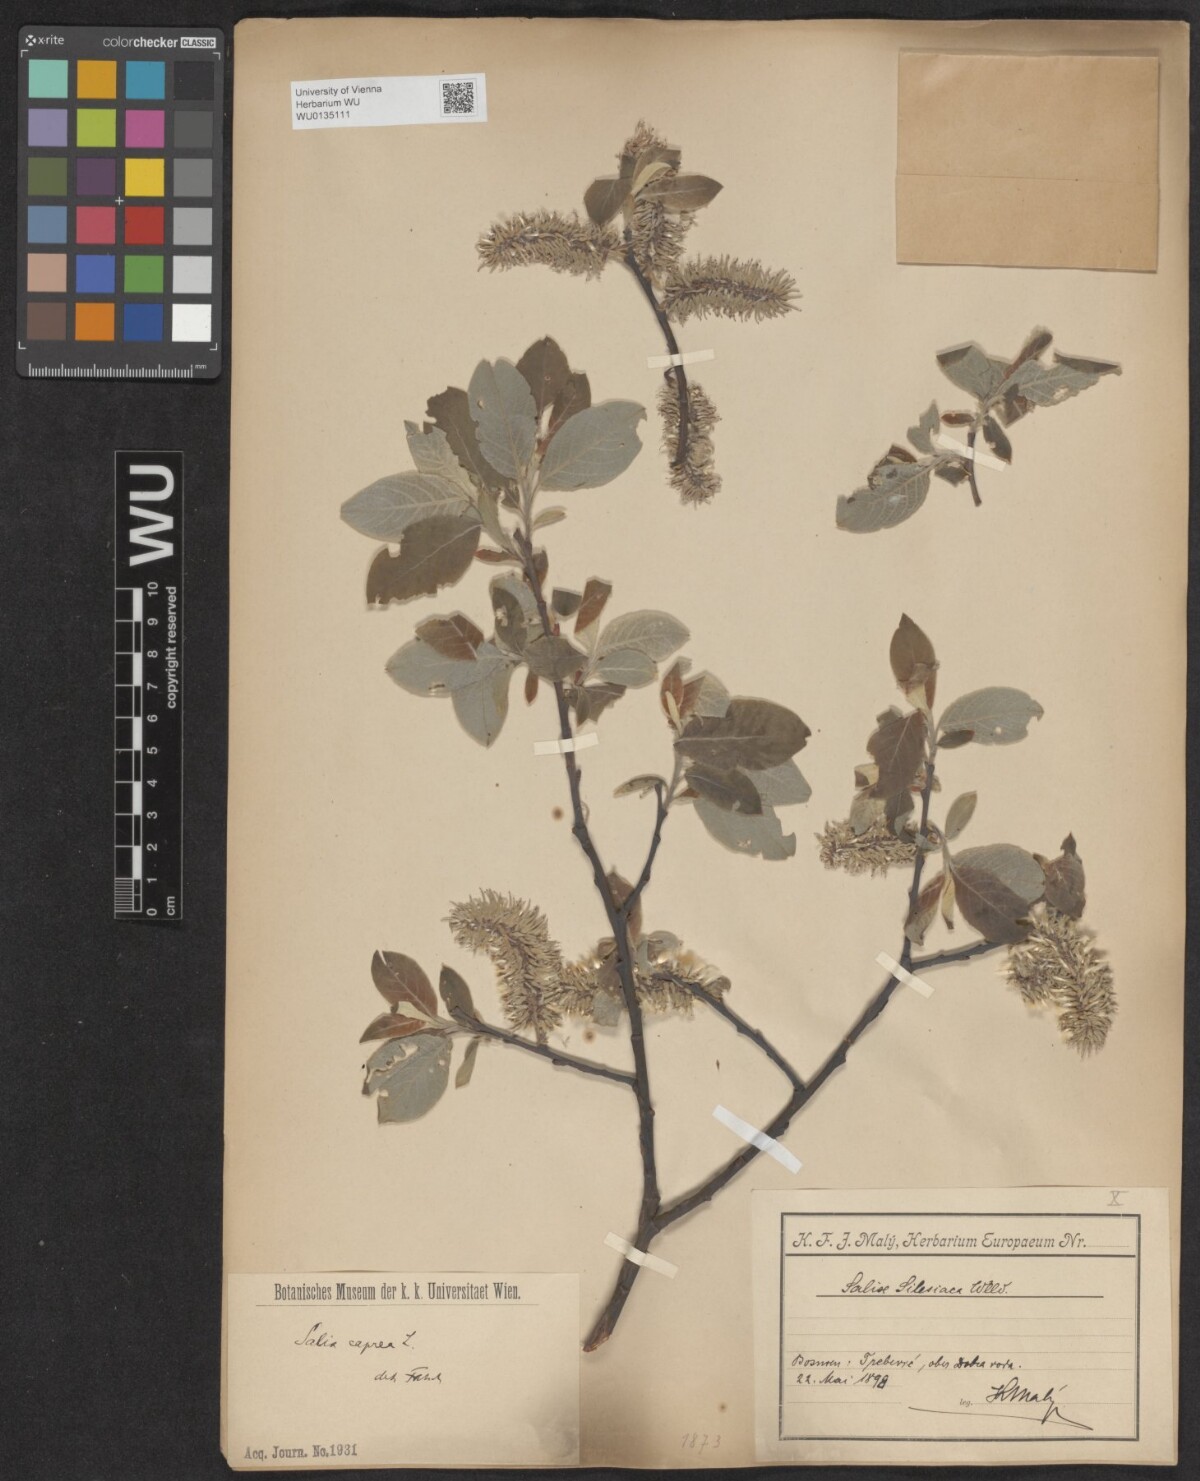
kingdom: Plantae
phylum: Tracheophyta
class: Magnoliopsida
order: Malpighiales
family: Salicaceae
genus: Salix
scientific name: Salix caprea
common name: Goat willow
